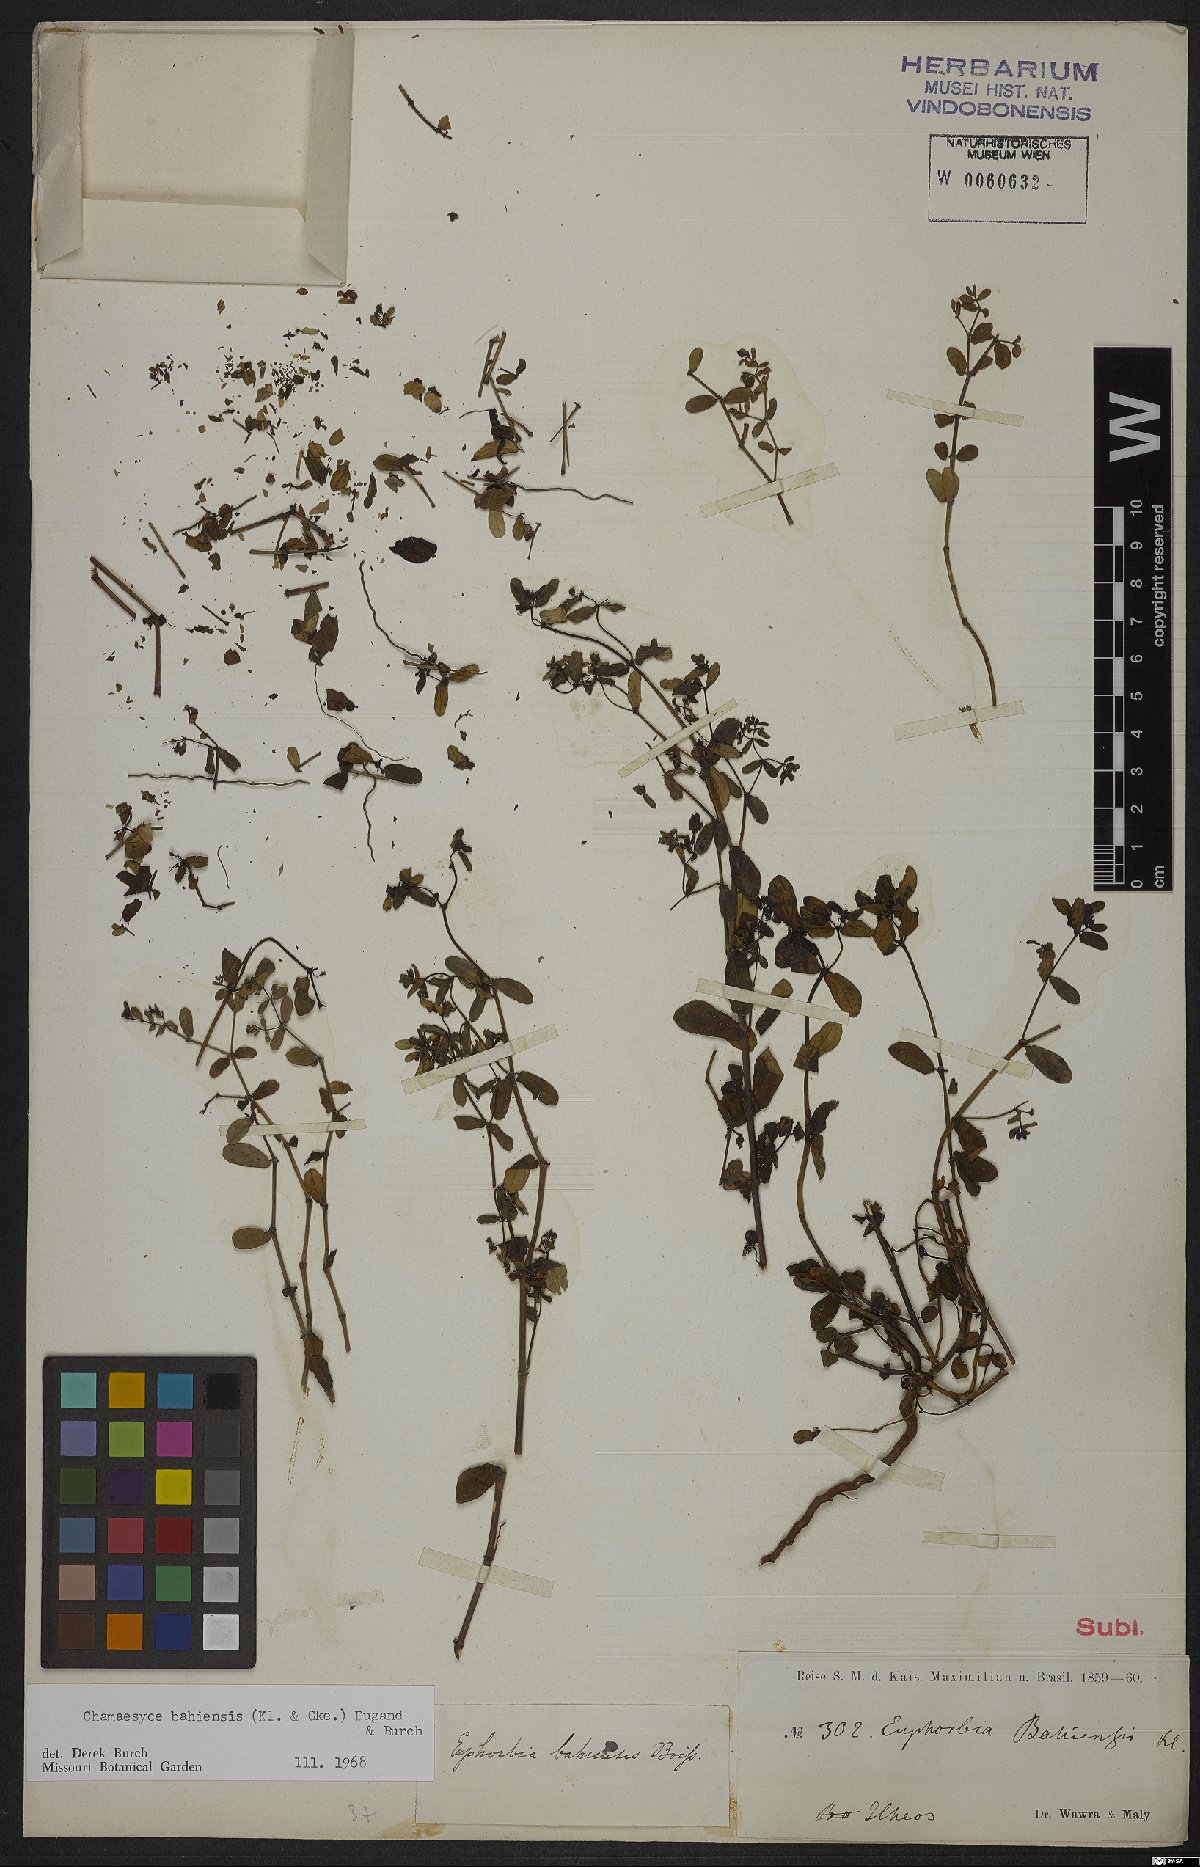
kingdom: Plantae
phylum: Tracheophyta
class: Magnoliopsida
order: Malpighiales
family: Euphorbiaceae
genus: Euphorbia
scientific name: Euphorbia bahiensis
